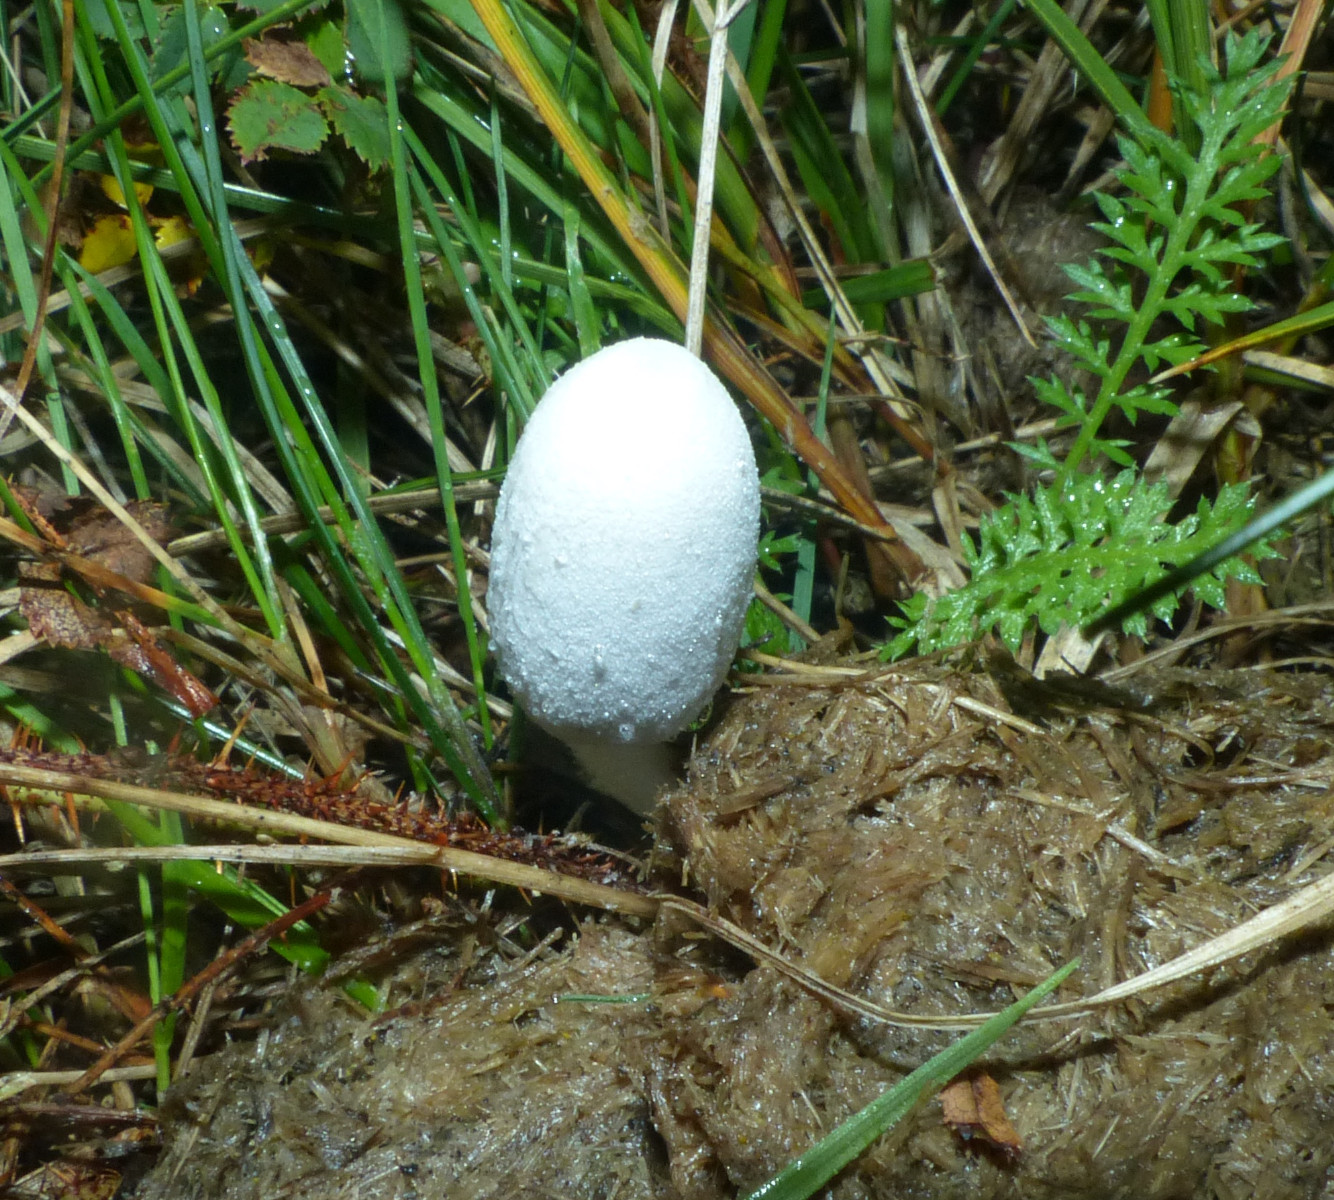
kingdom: Fungi
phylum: Basidiomycota
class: Agaricomycetes
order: Agaricales
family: Psathyrellaceae
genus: Coprinopsis
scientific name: Coprinopsis nivea
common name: snehvid blækhat
